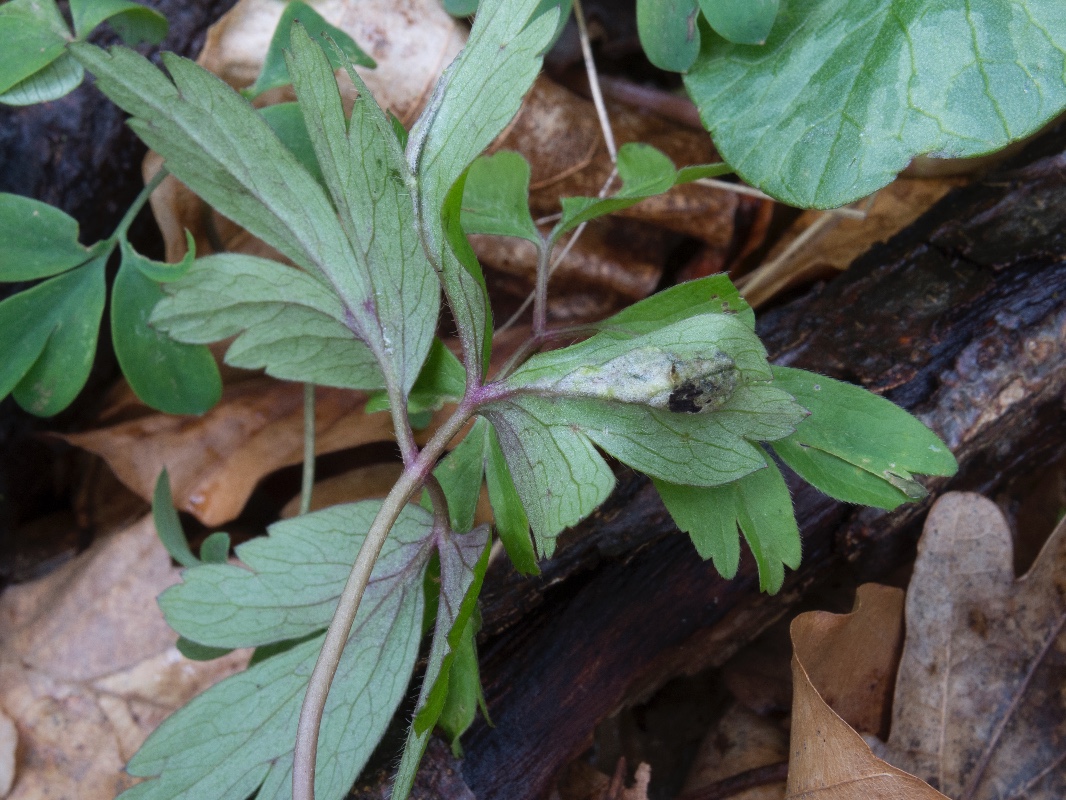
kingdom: Fungi
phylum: Basidiomycota
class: Ustilaginomycetes
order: Urocystidales
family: Urocystidaceae
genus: Urocystis
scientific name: Urocystis anemones
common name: anemone-brand
